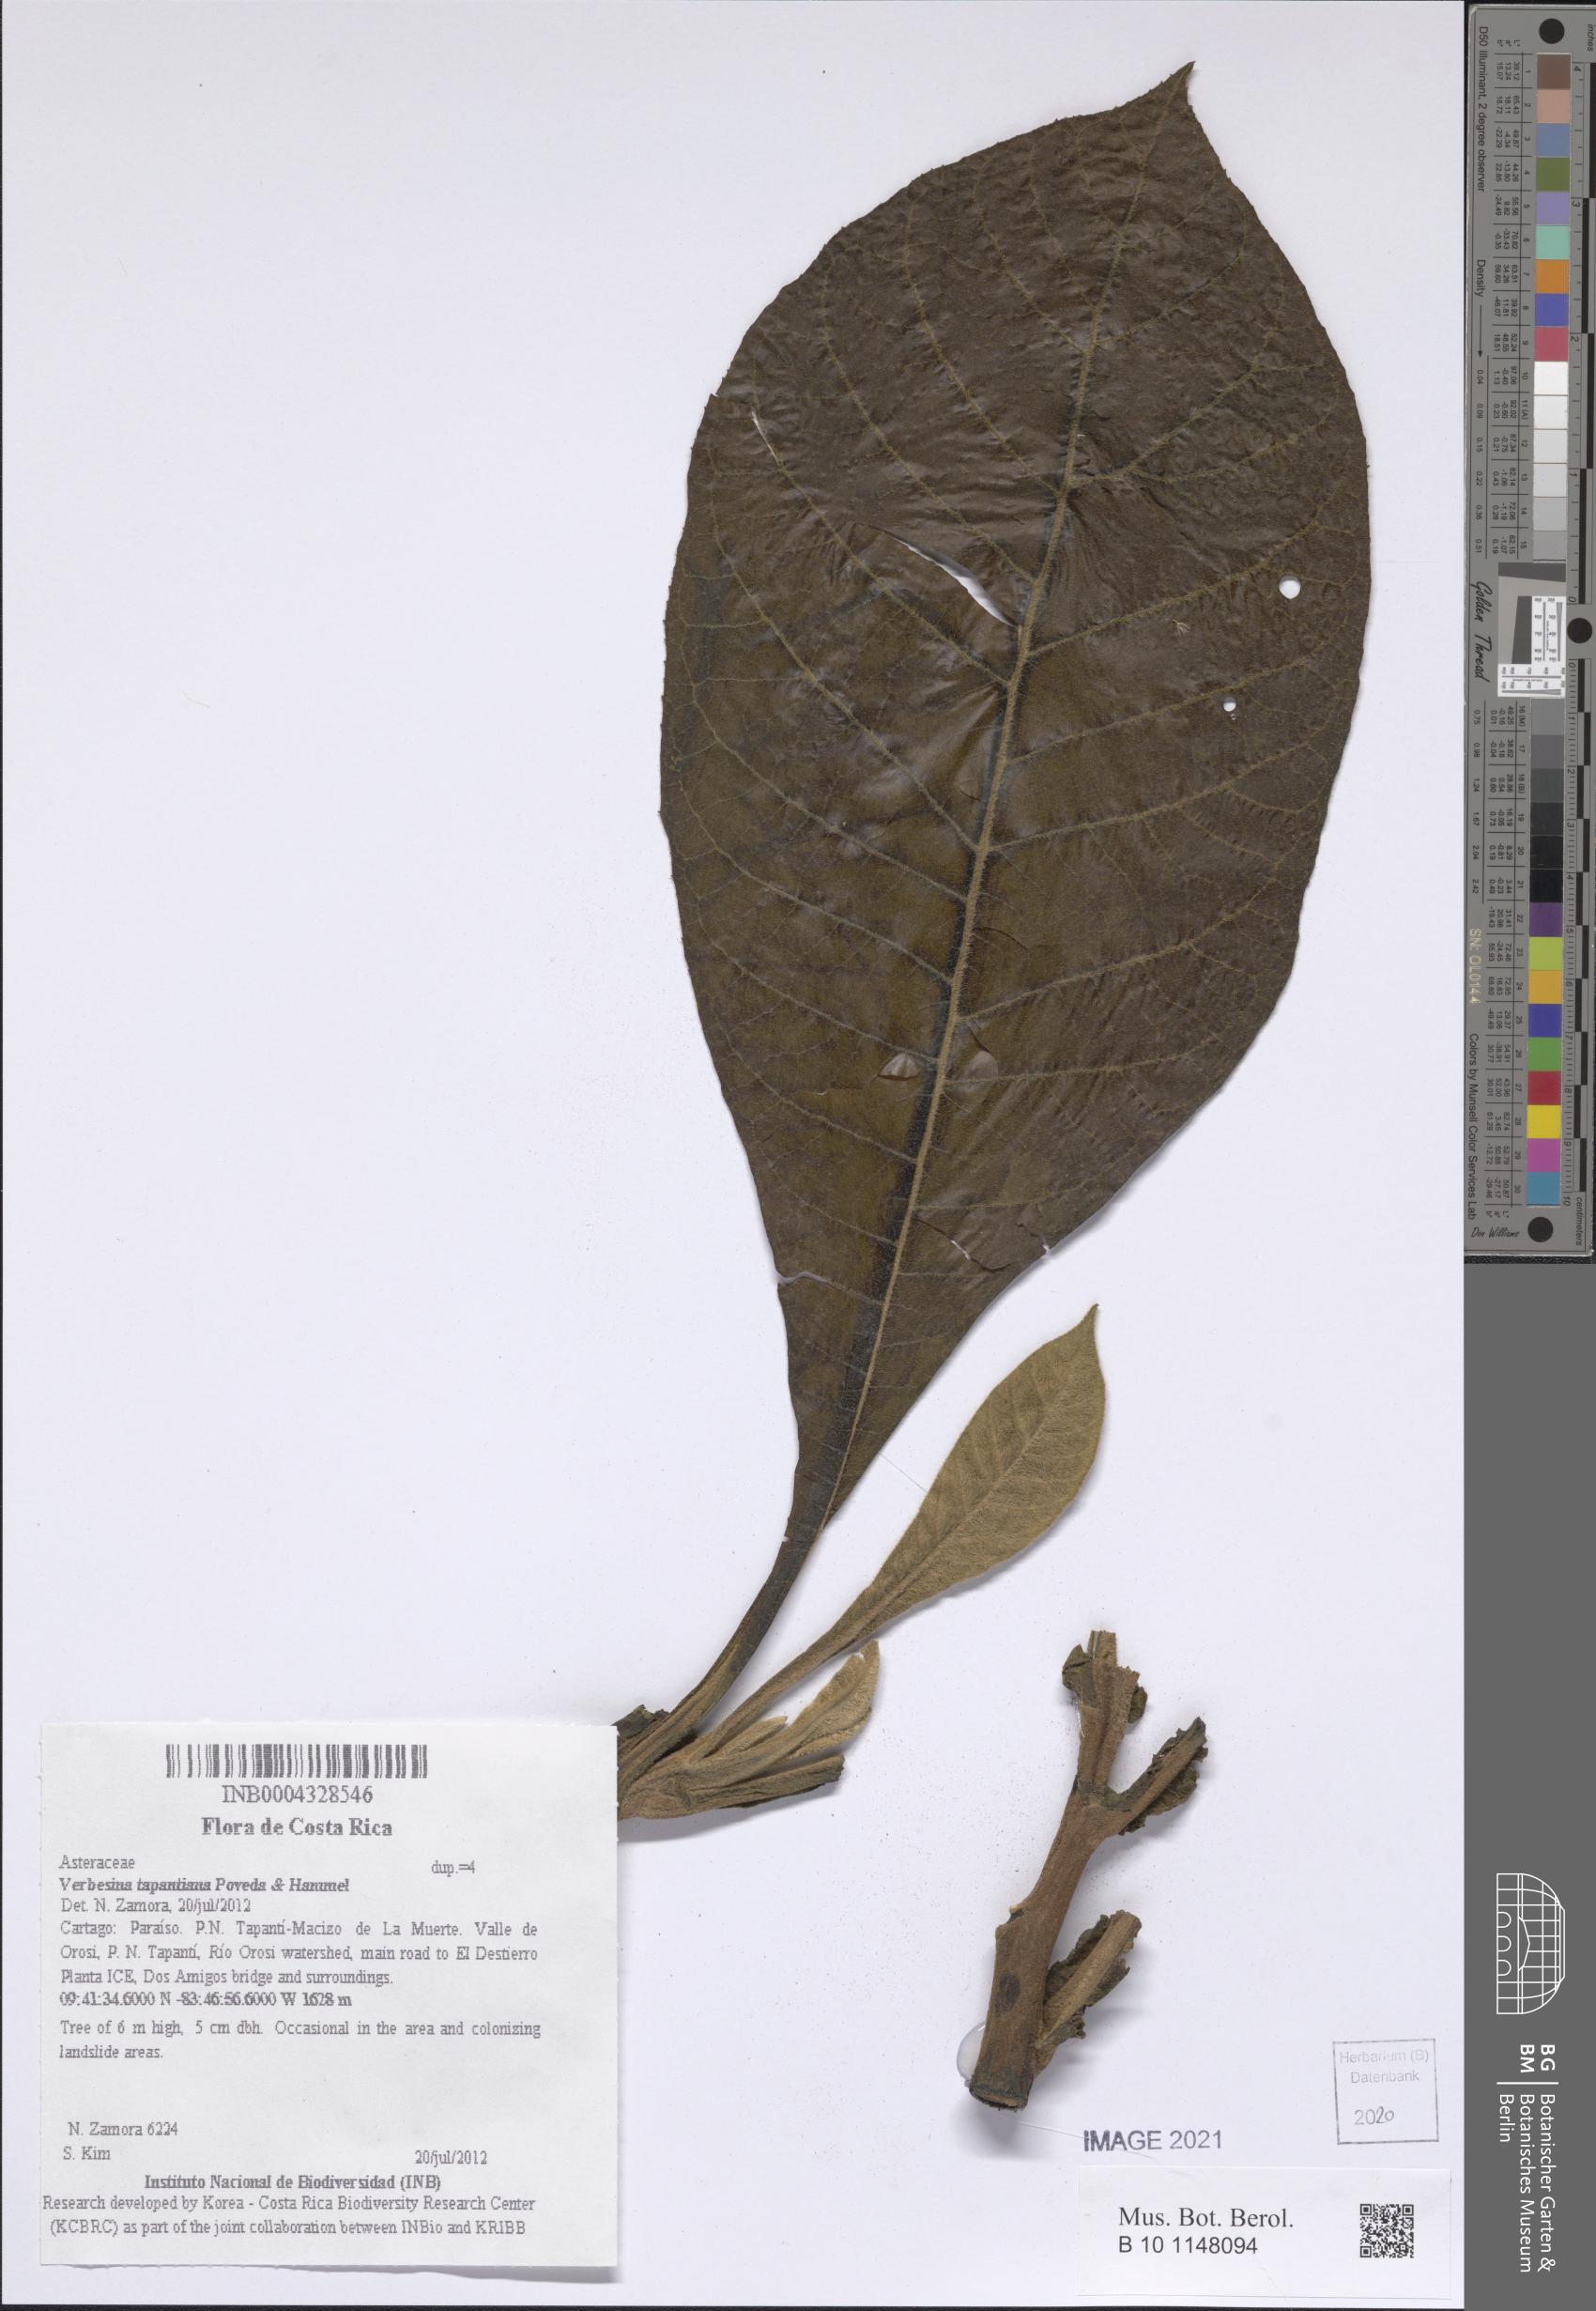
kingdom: Plantae
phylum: Tracheophyta
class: Magnoliopsida
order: Asterales
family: Asteraceae
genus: Verbesina
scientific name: Verbesina tapantiana
